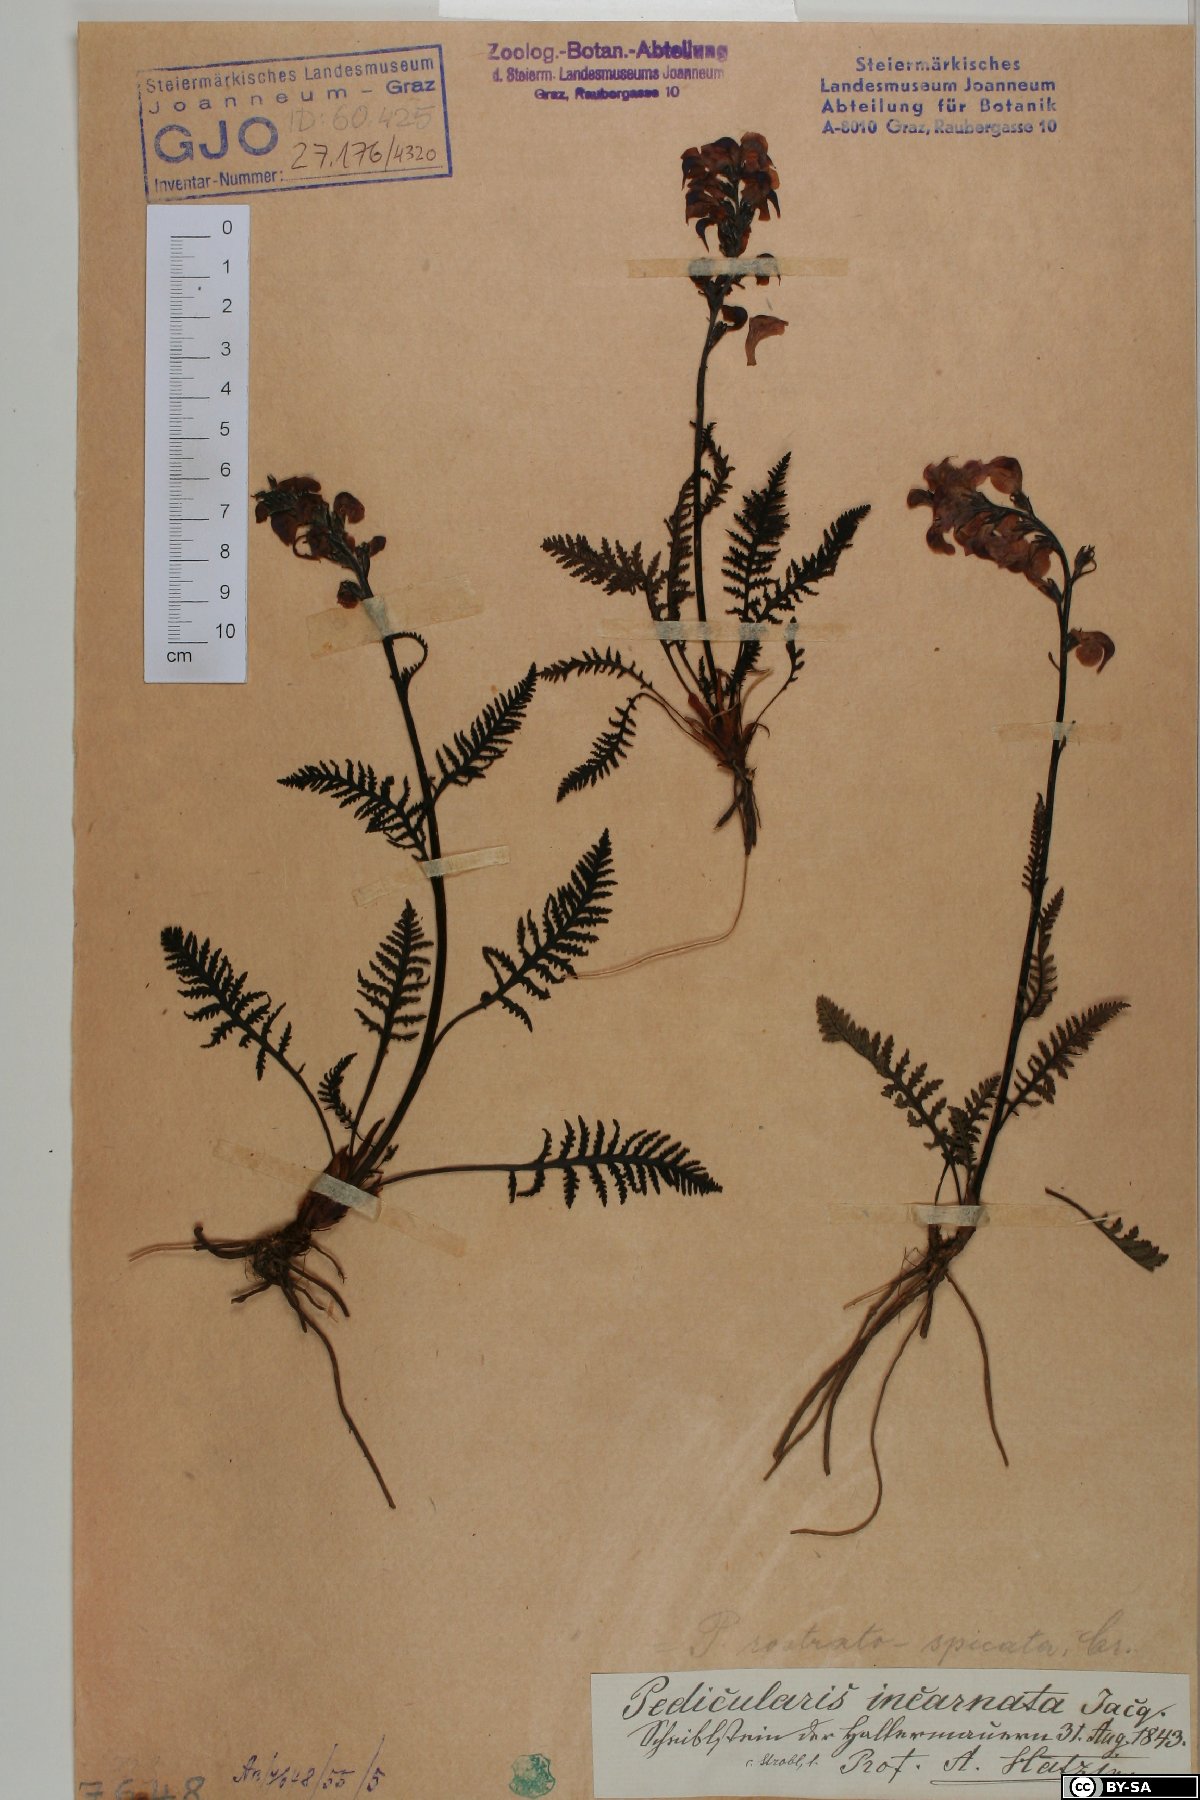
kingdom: Plantae
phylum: Tracheophyta
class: Magnoliopsida
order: Lamiales
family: Orobanchaceae
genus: Pedicularis
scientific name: Pedicularis rostratospicata
